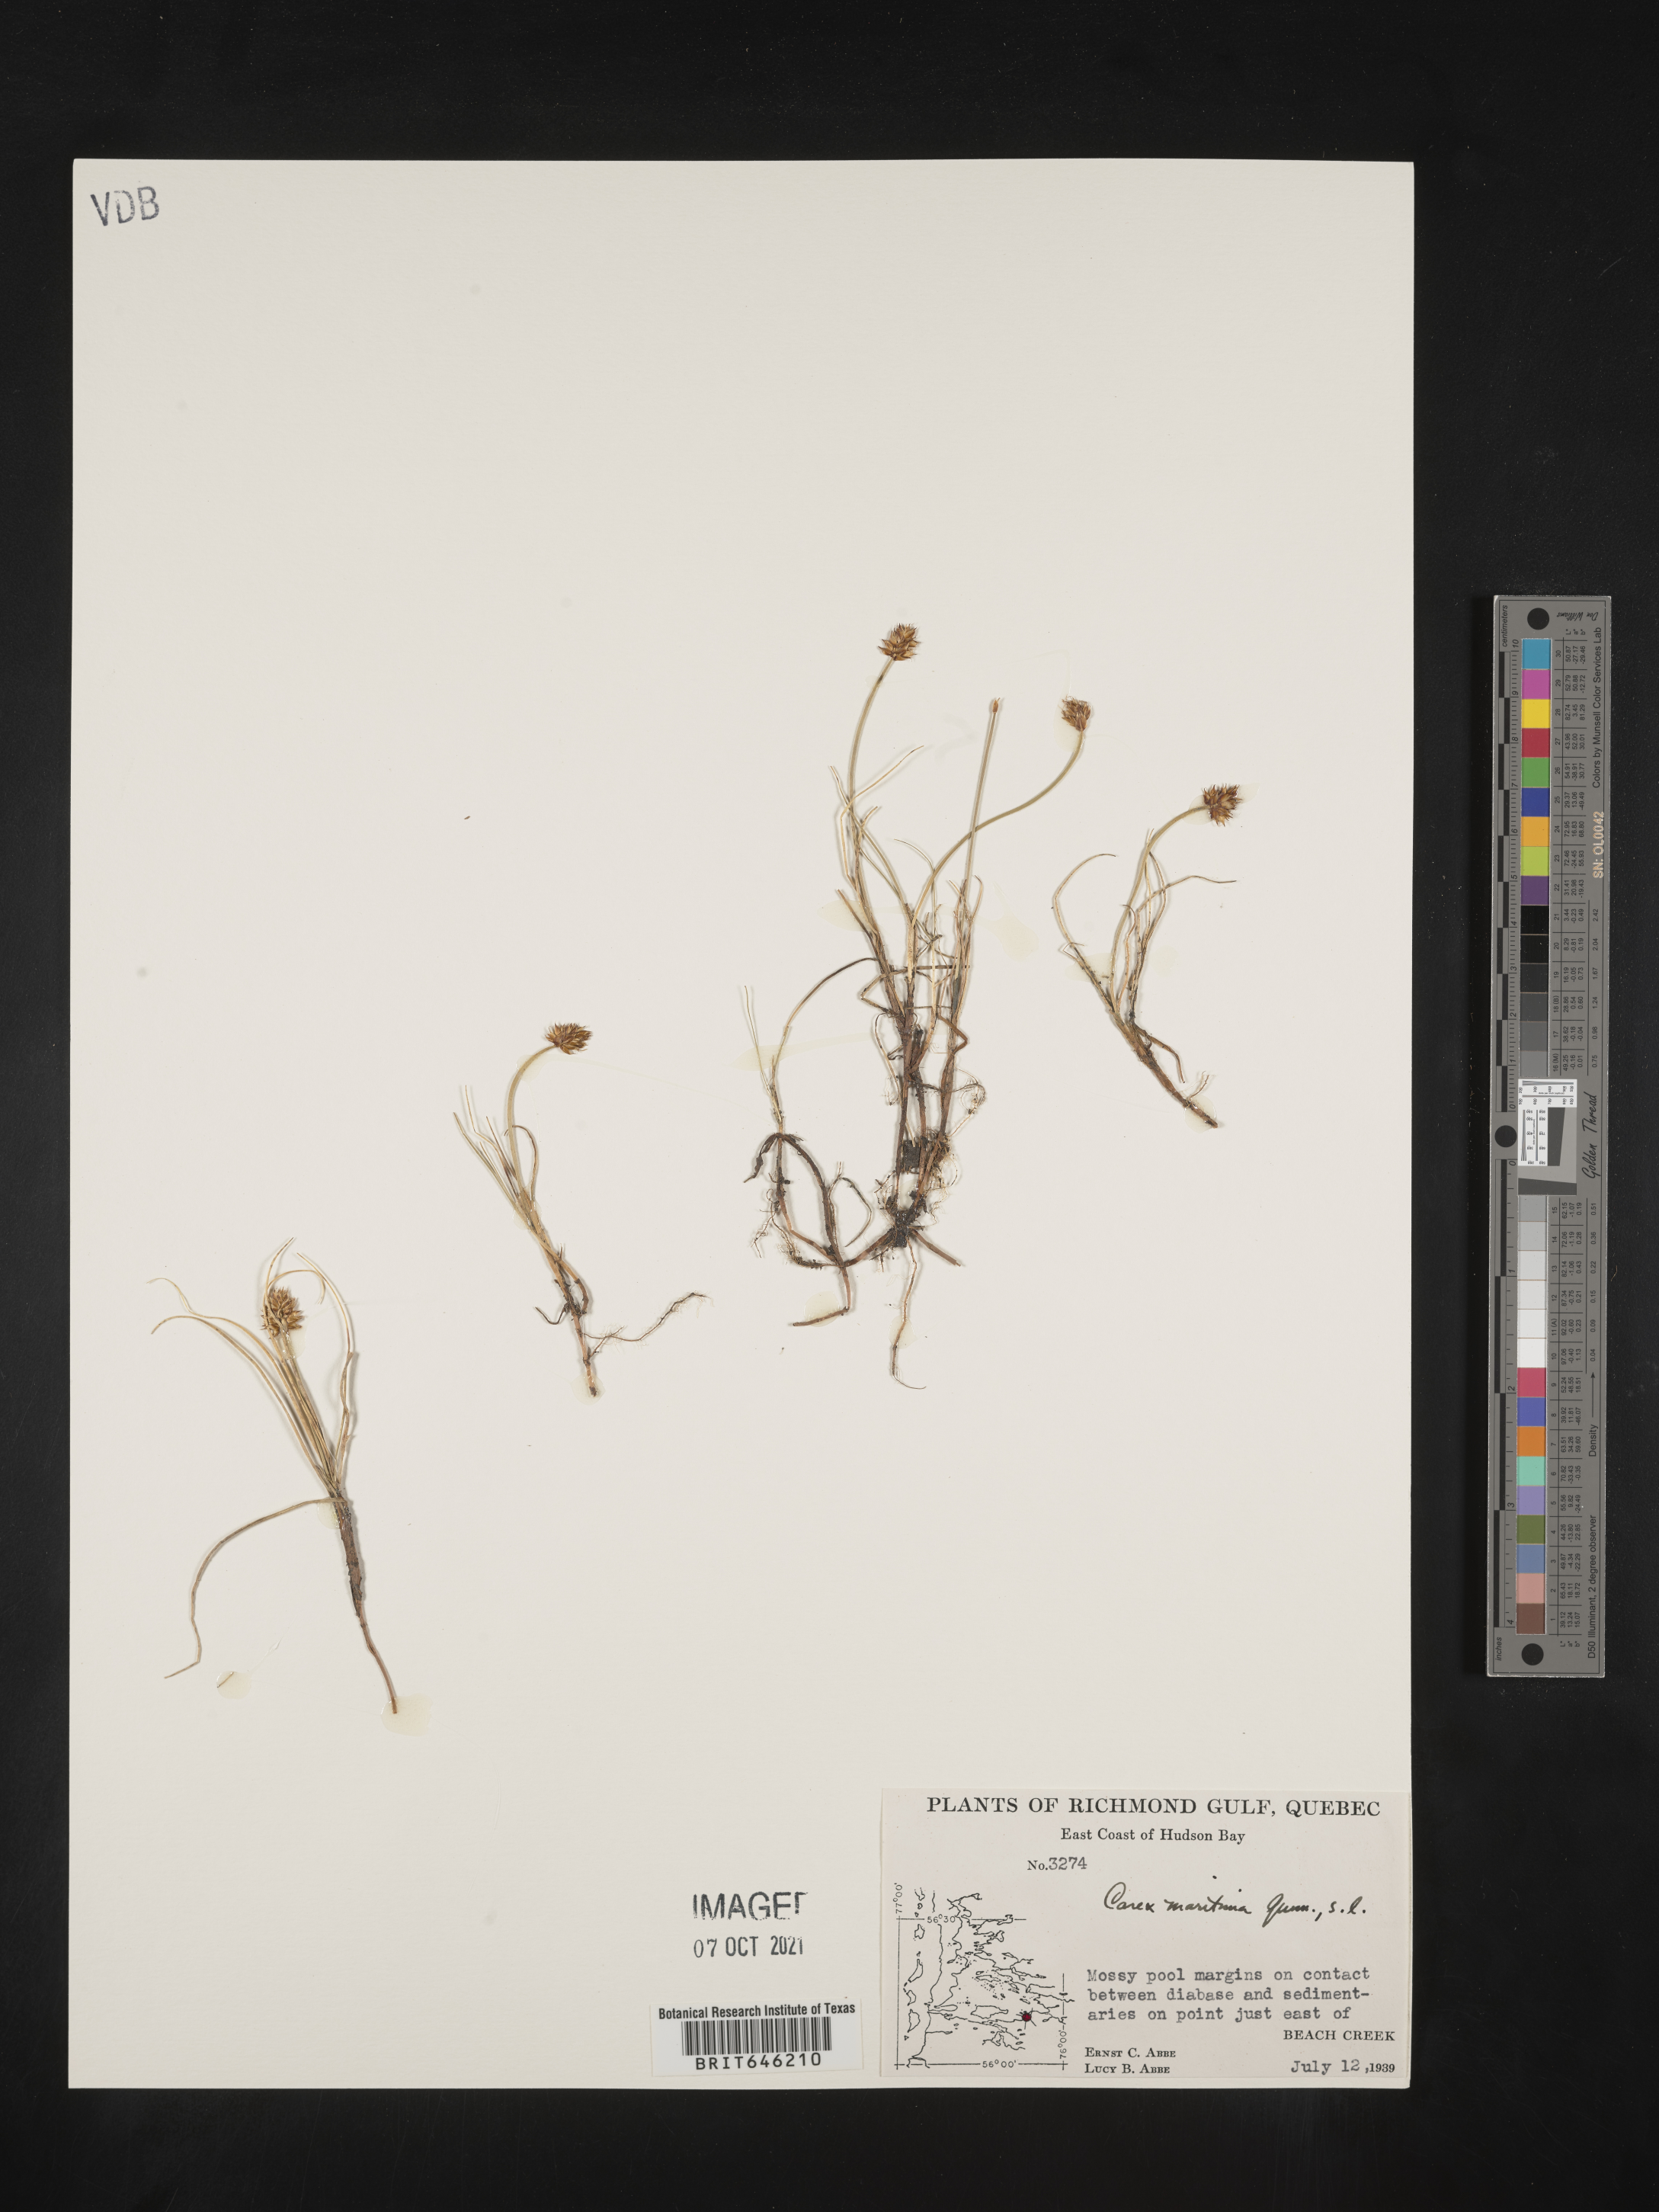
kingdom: Plantae
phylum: Tracheophyta
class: Liliopsida
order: Poales
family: Cyperaceae
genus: Carex
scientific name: Carex maritima
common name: Curved sedge
